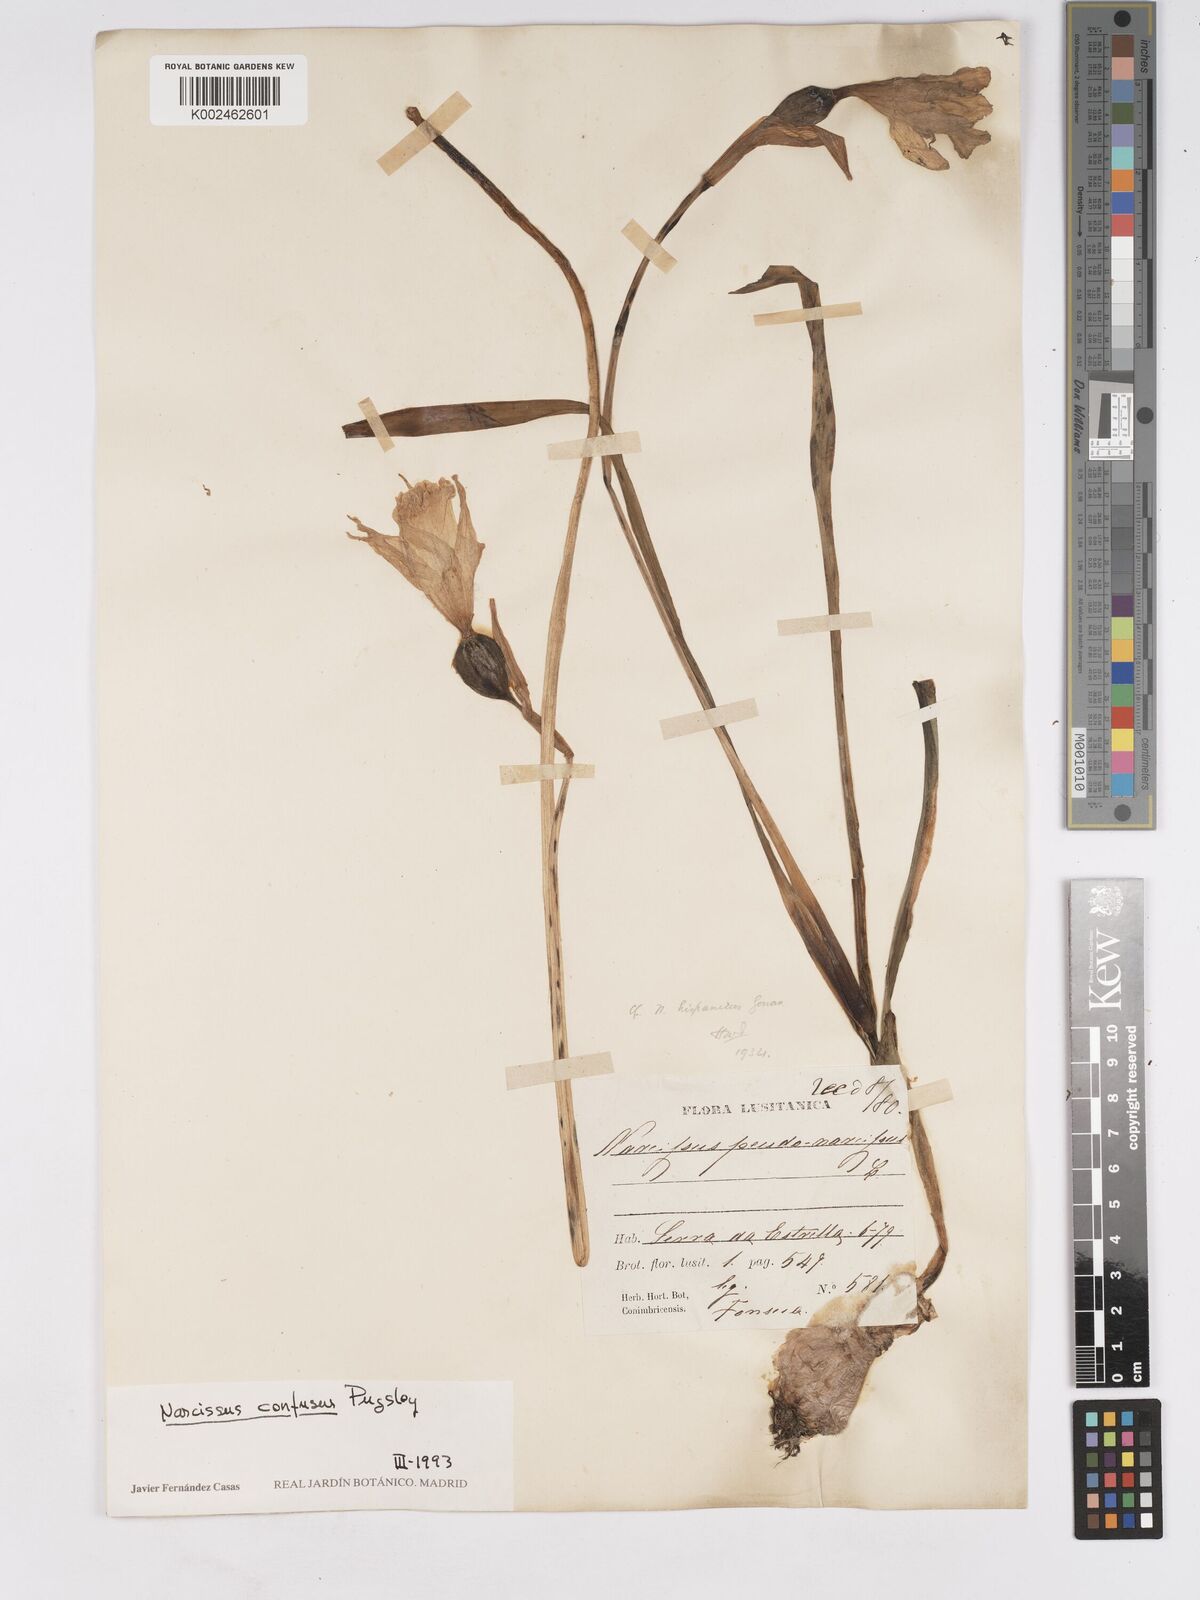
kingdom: Plantae
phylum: Tracheophyta
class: Liliopsida
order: Asparagales
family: Amaryllidaceae
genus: Narcissus
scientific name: Narcissus confusus
